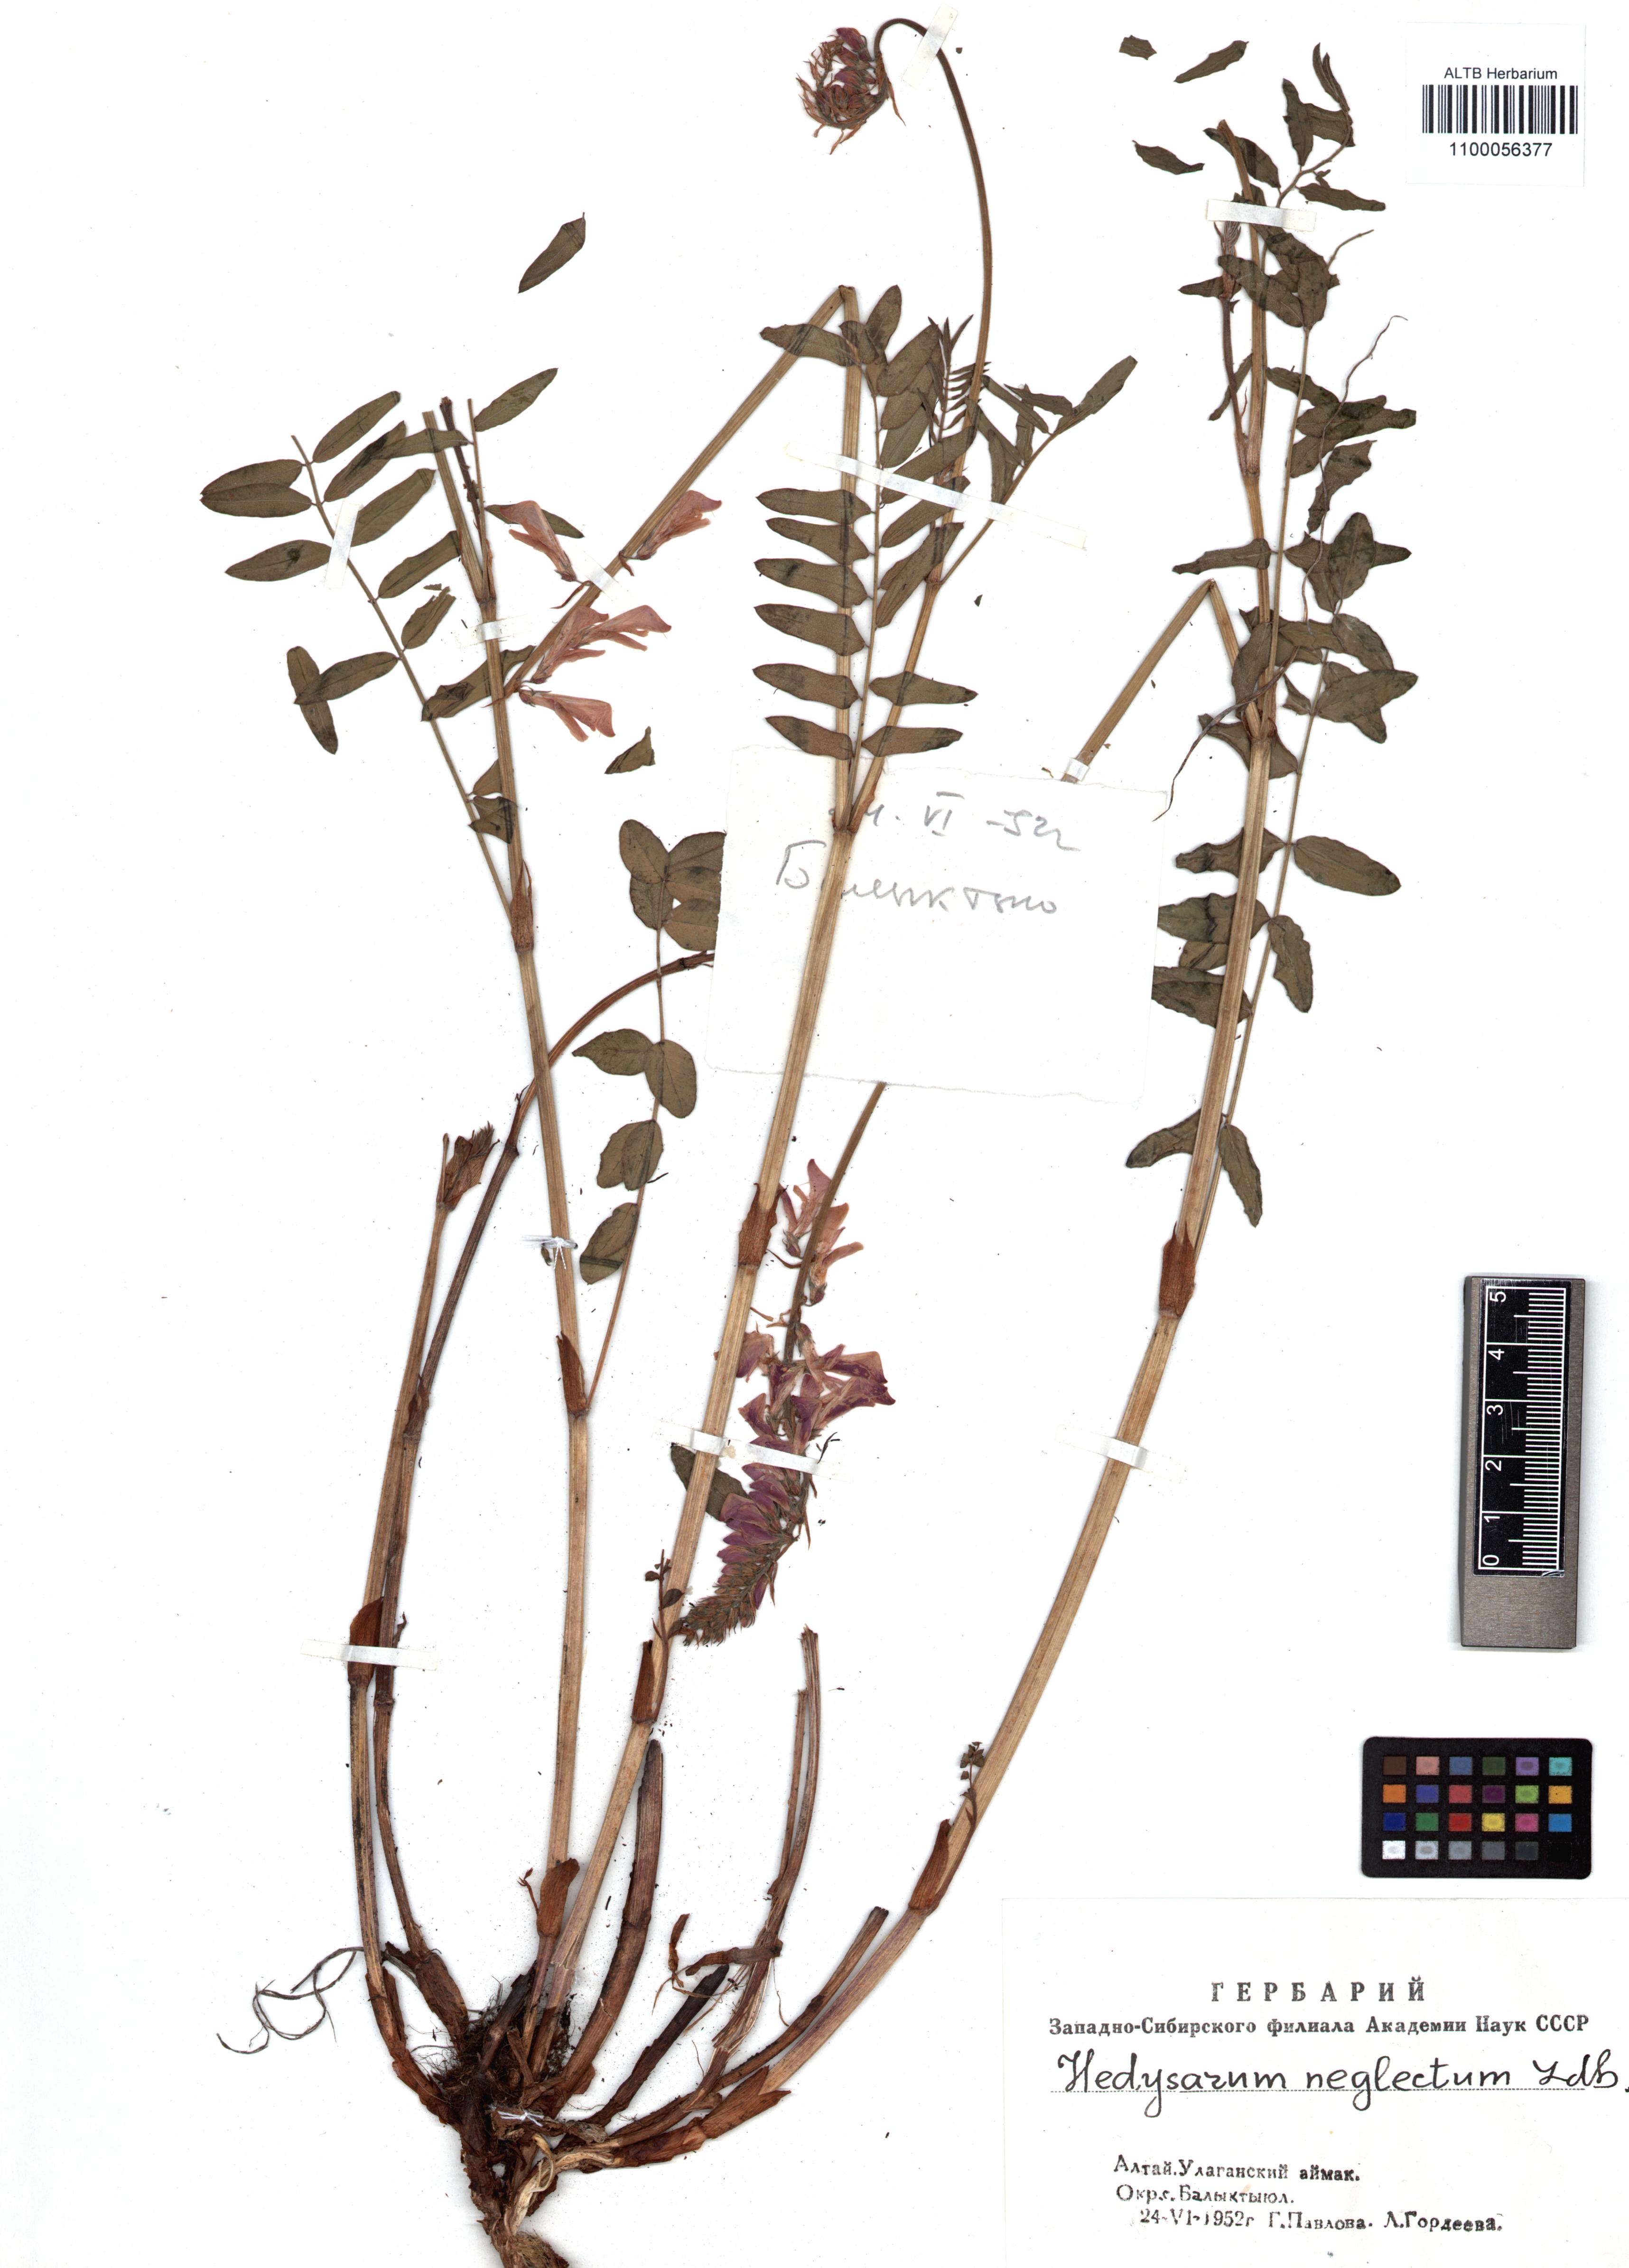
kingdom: Plantae
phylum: Tracheophyta
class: Magnoliopsida
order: Fabales
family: Fabaceae
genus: Hedysarum
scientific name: Hedysarum neglectum
